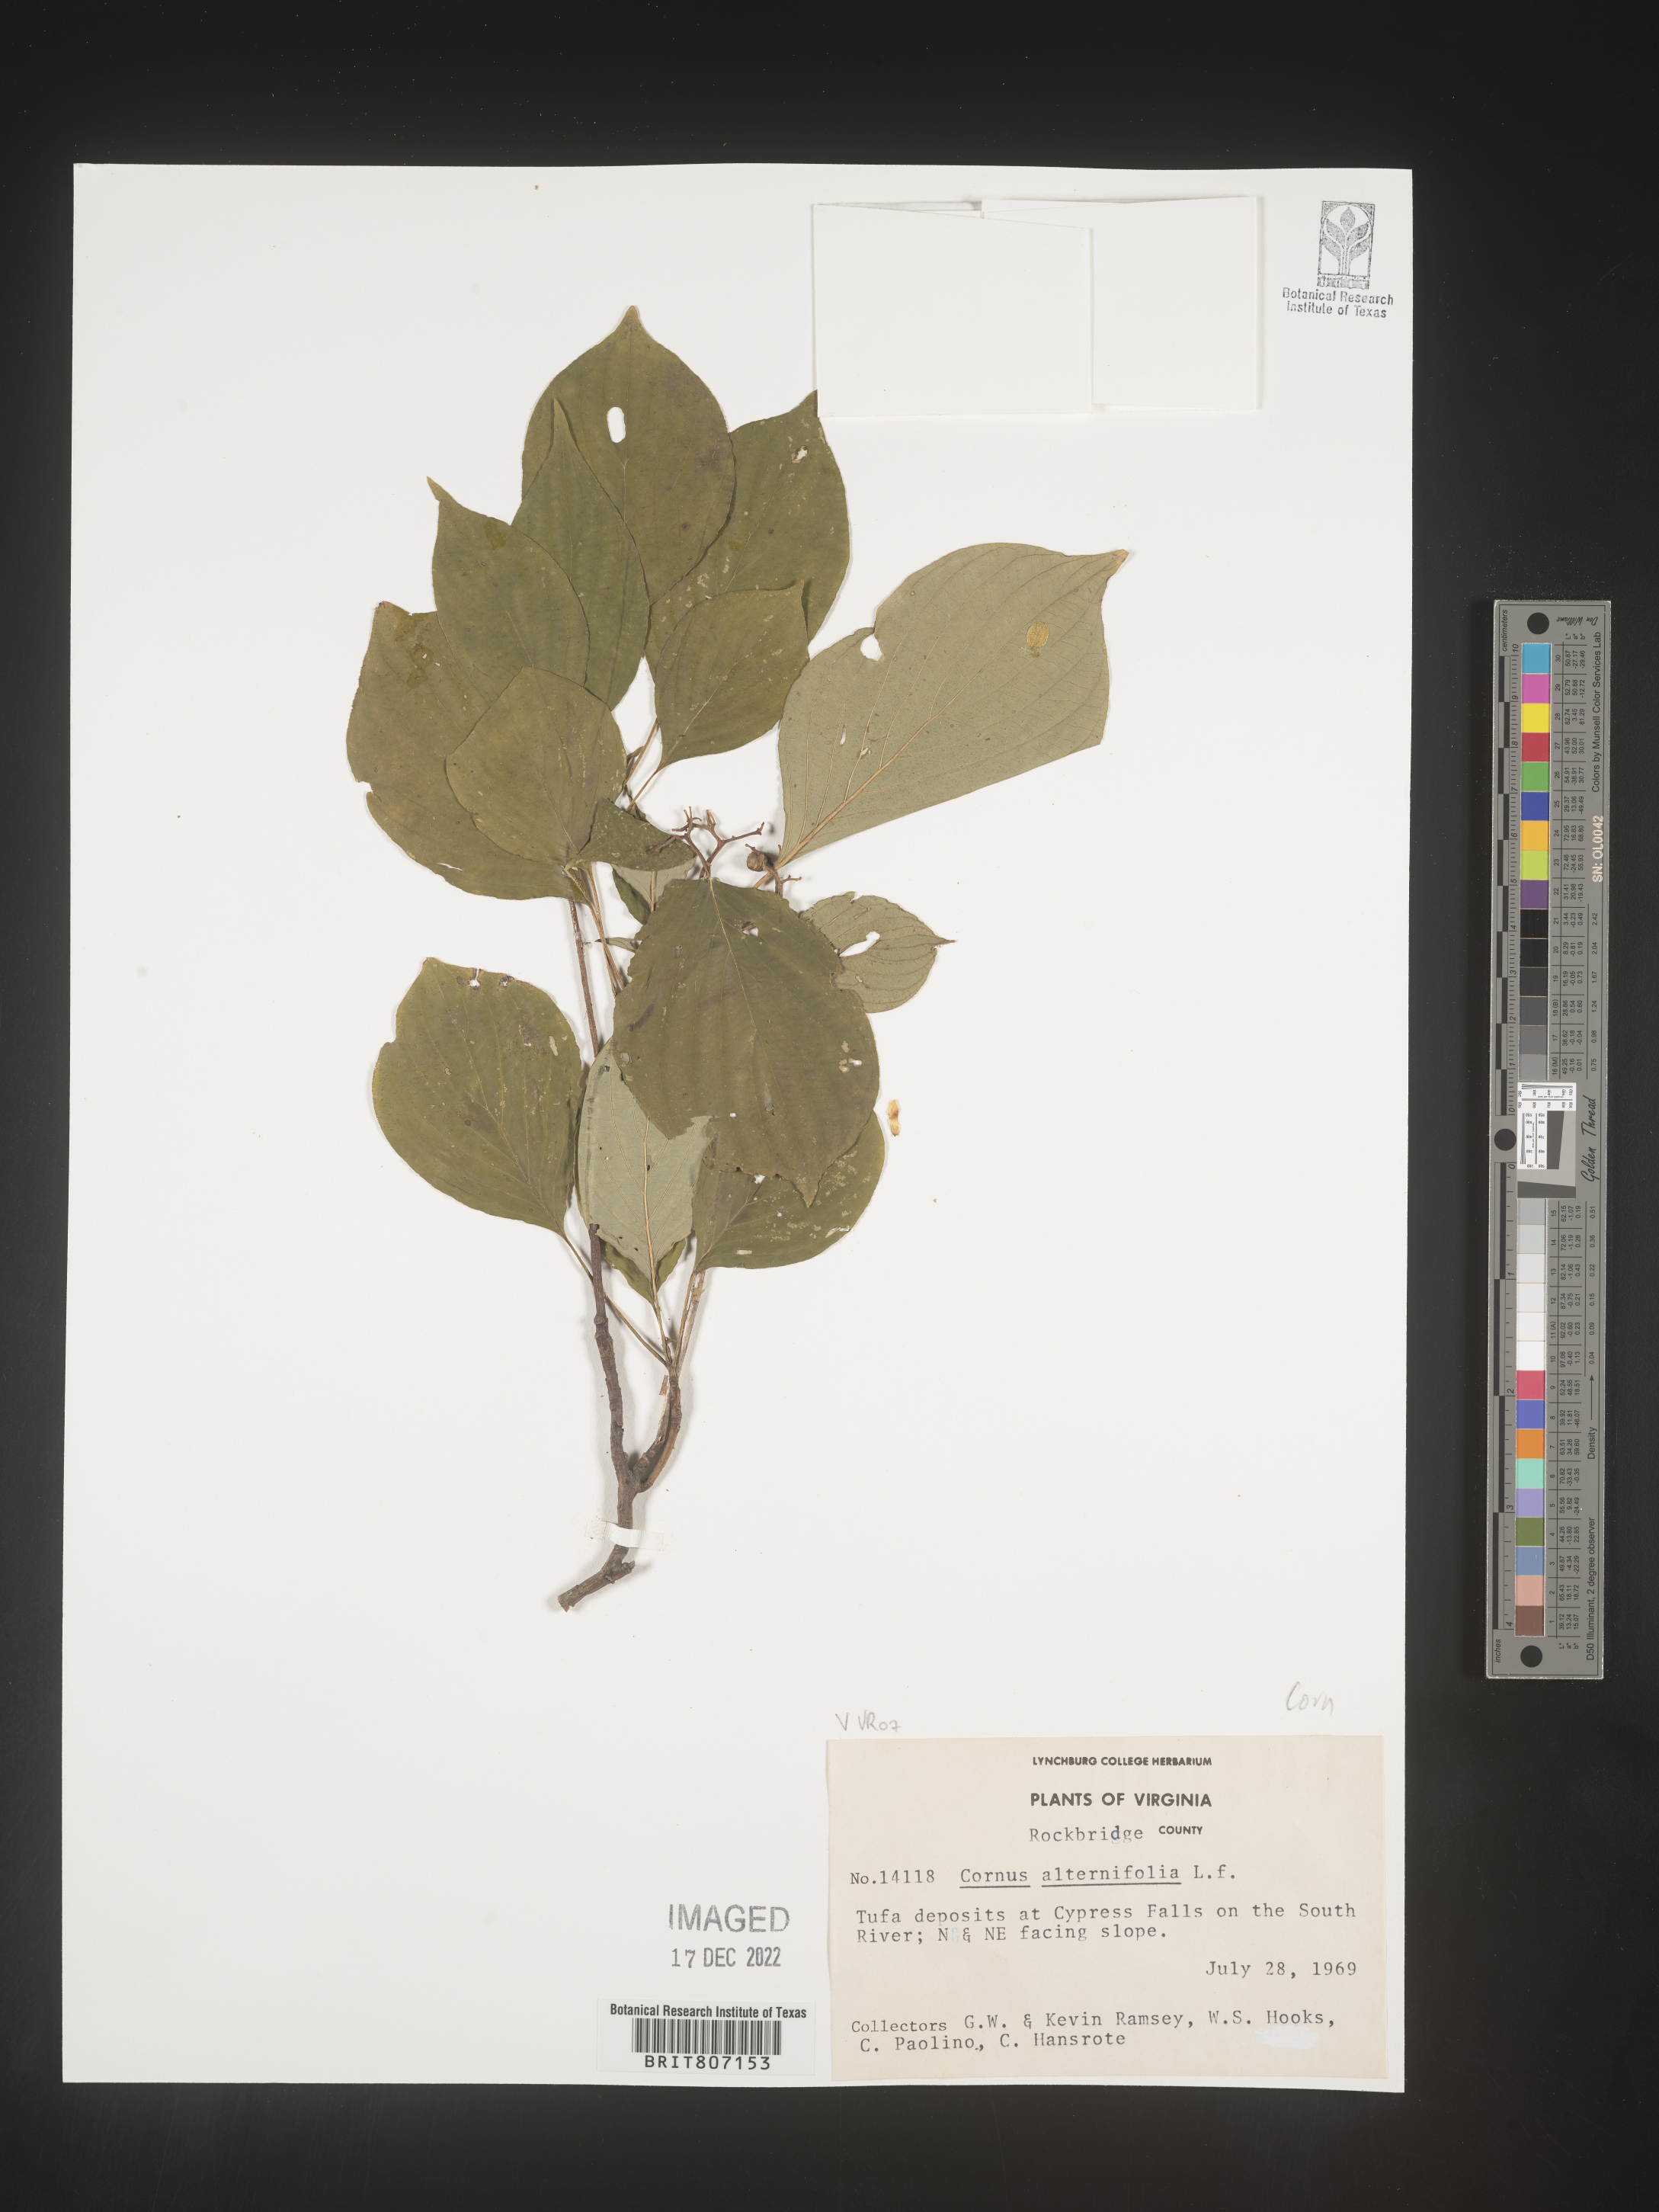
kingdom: Plantae
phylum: Tracheophyta
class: Magnoliopsida
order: Cornales
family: Cornaceae
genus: Cornus
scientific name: Cornus alternifolia
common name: Pagoda dogwood
